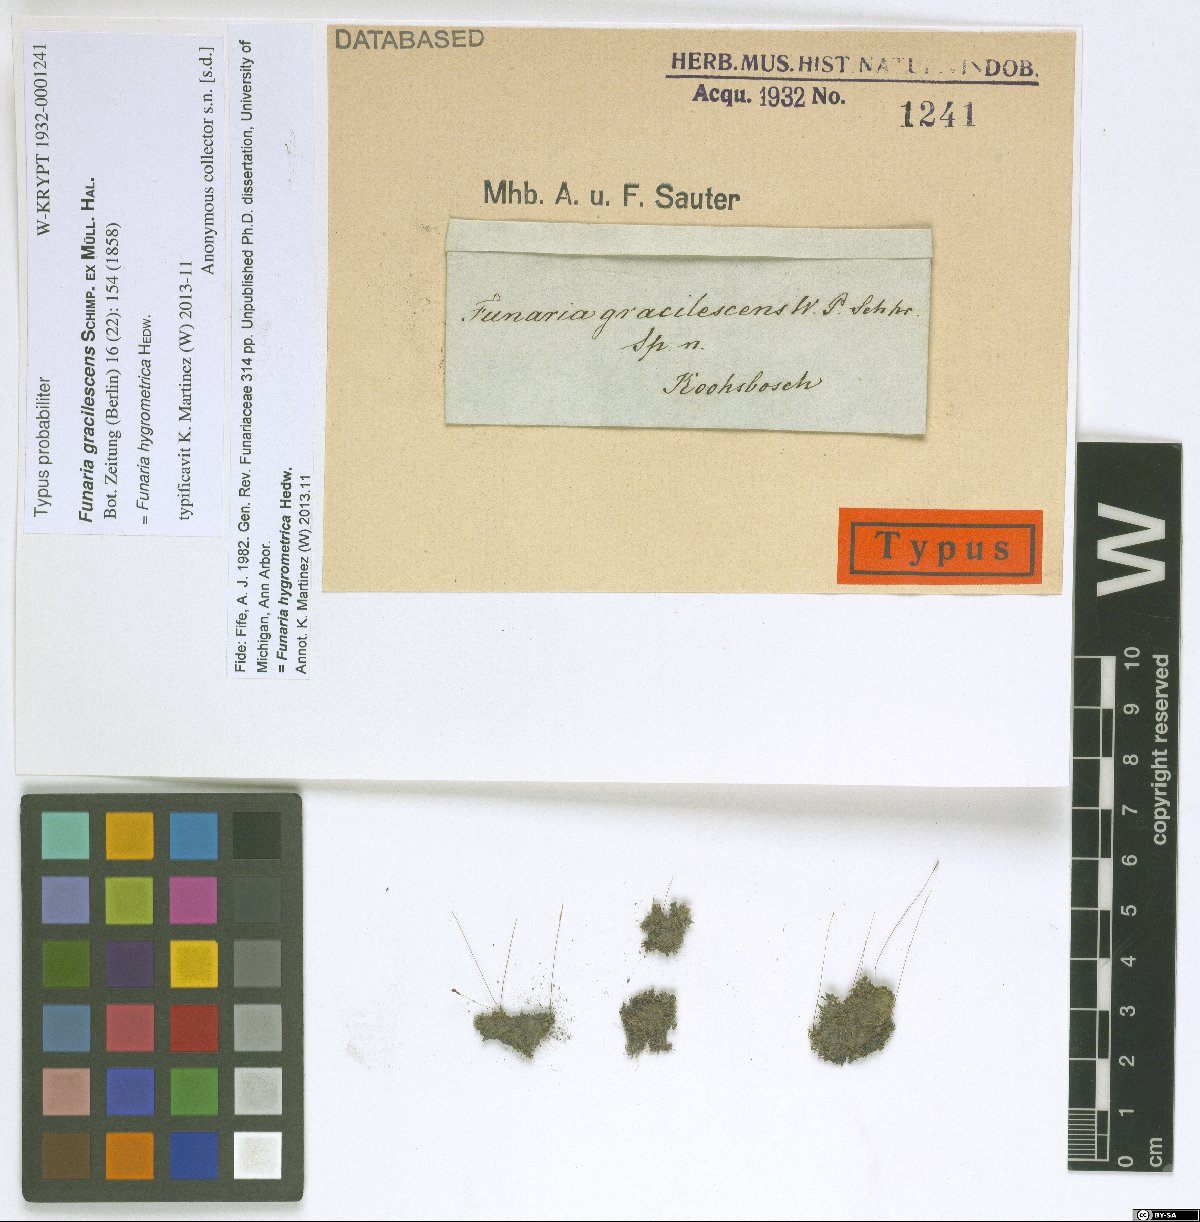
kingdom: Plantae
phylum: Bryophyta
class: Bryopsida
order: Funariales
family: Funariaceae
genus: Funaria
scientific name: Funaria hygrometrica
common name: Common cord moss
